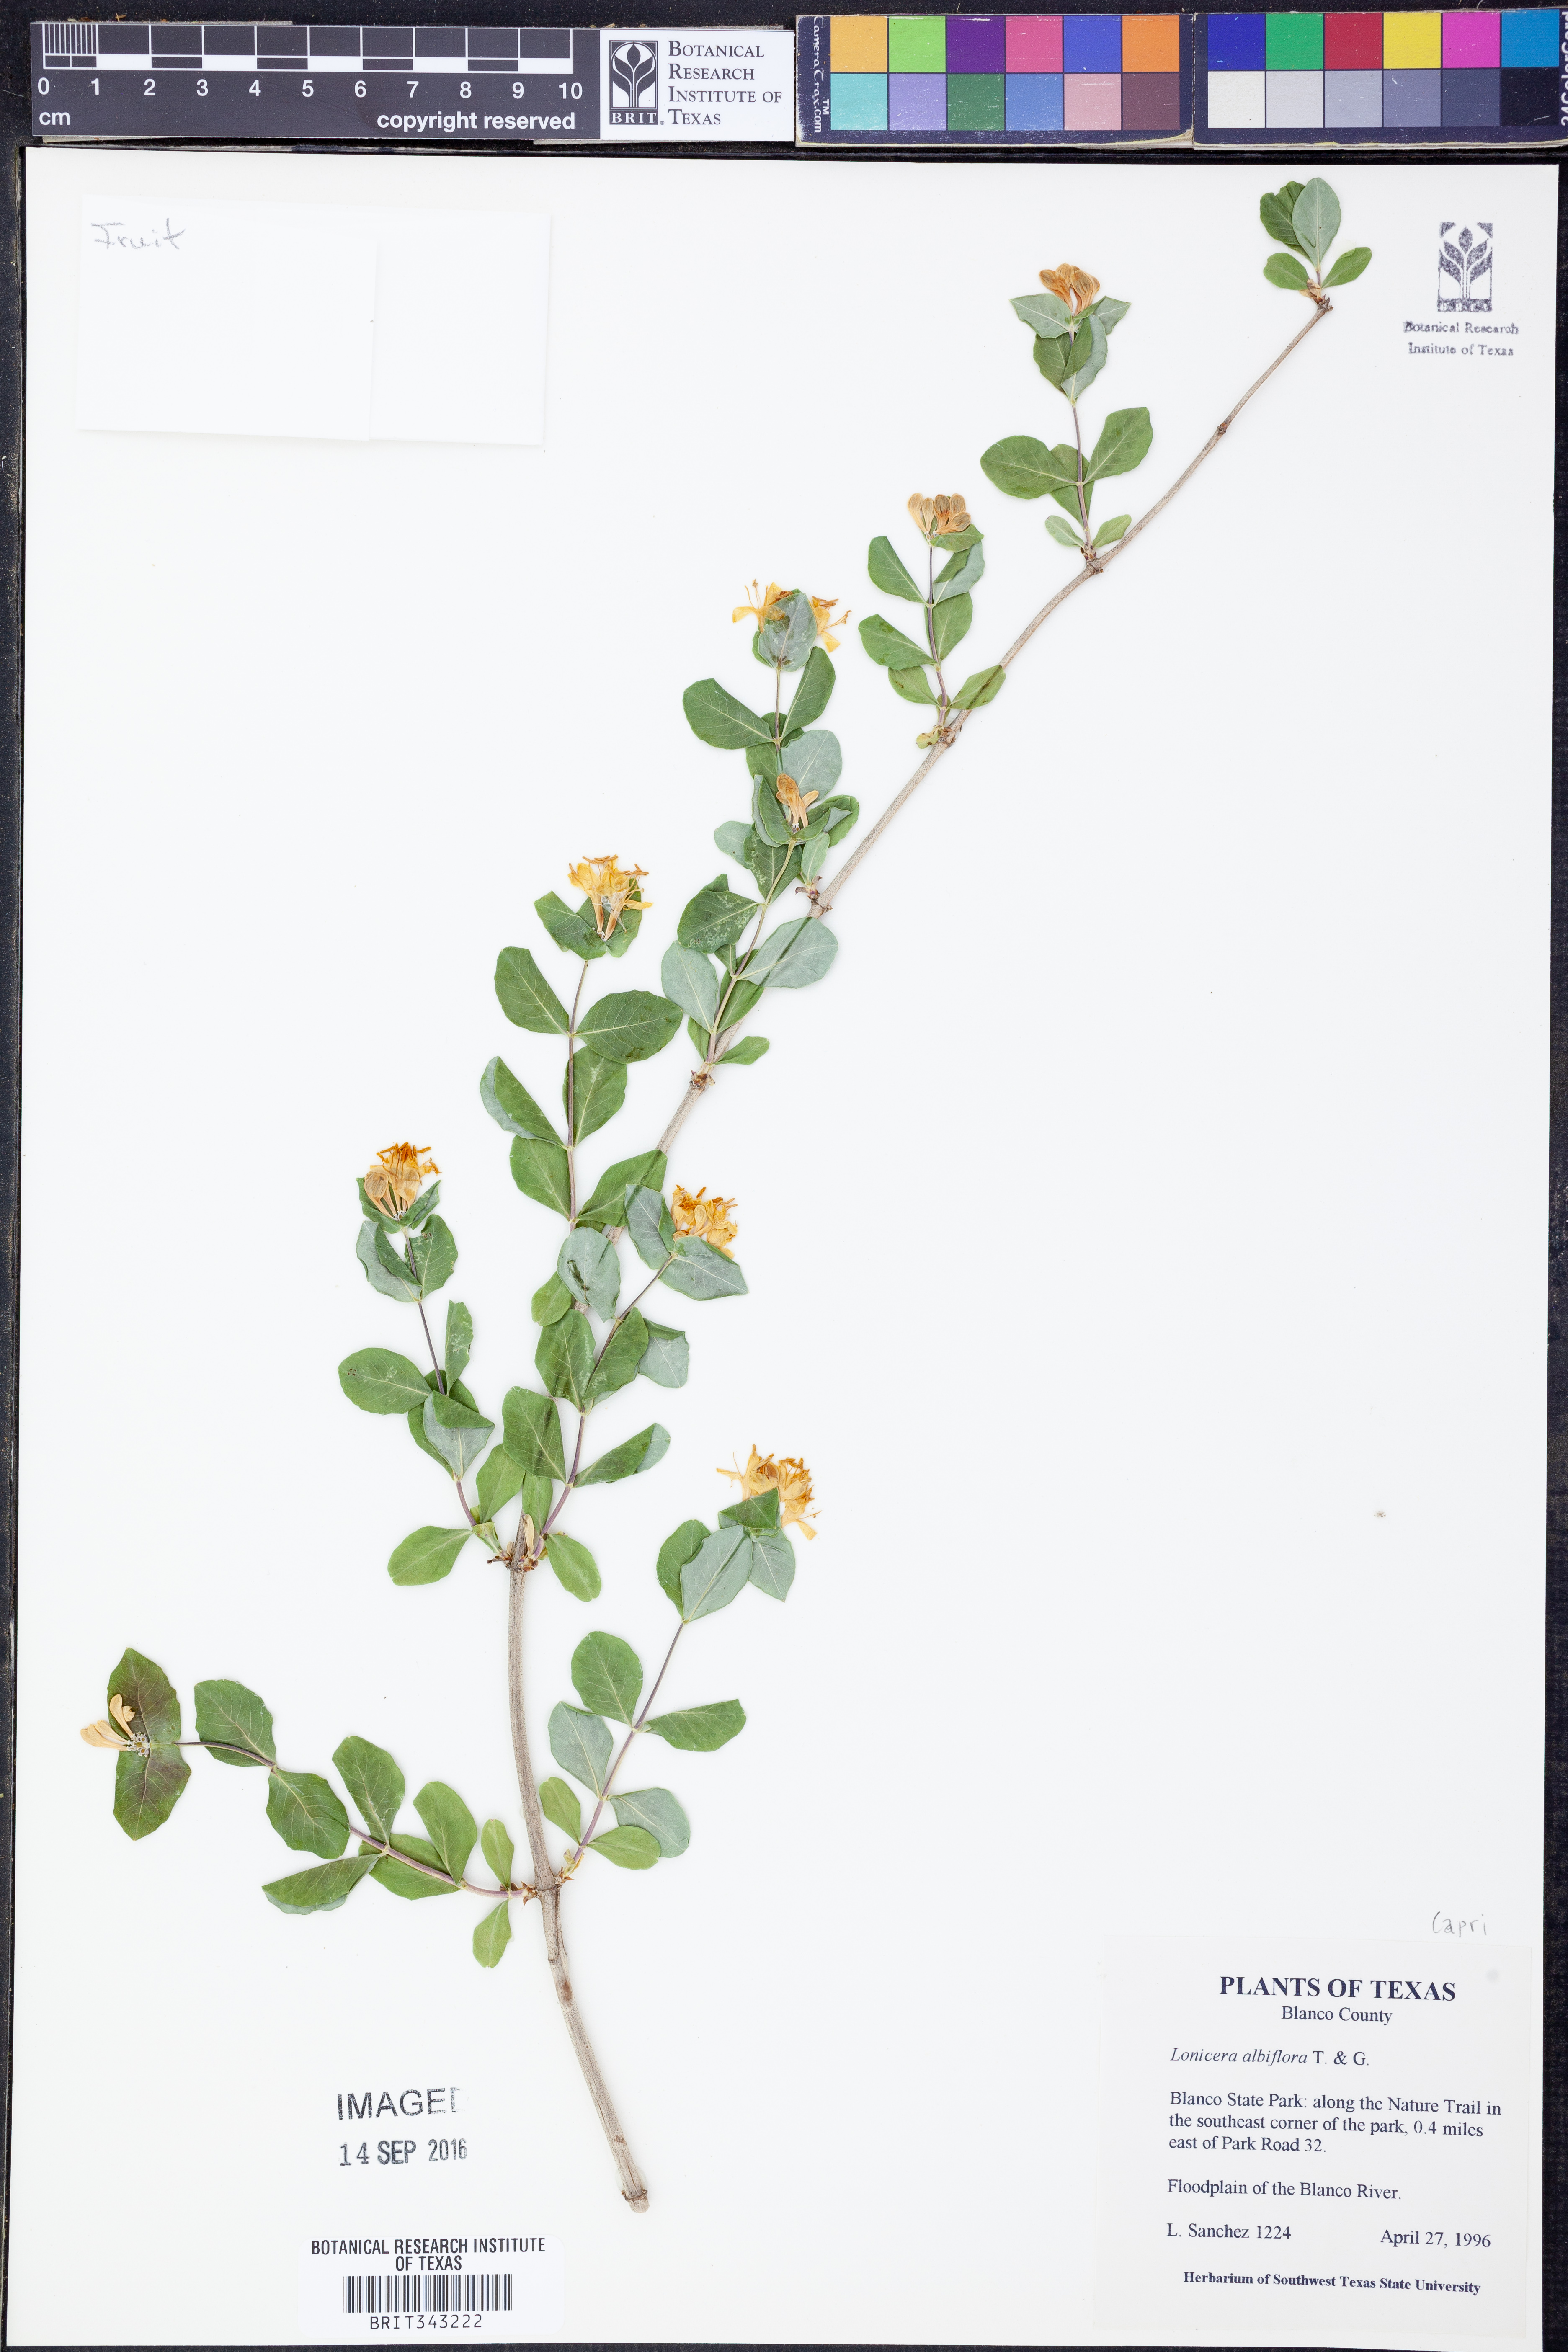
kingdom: Plantae
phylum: Tracheophyta
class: Magnoliopsida
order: Dipsacales
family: Caprifoliaceae
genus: Lonicera
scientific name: Lonicera albiflora
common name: White honeysuckle
